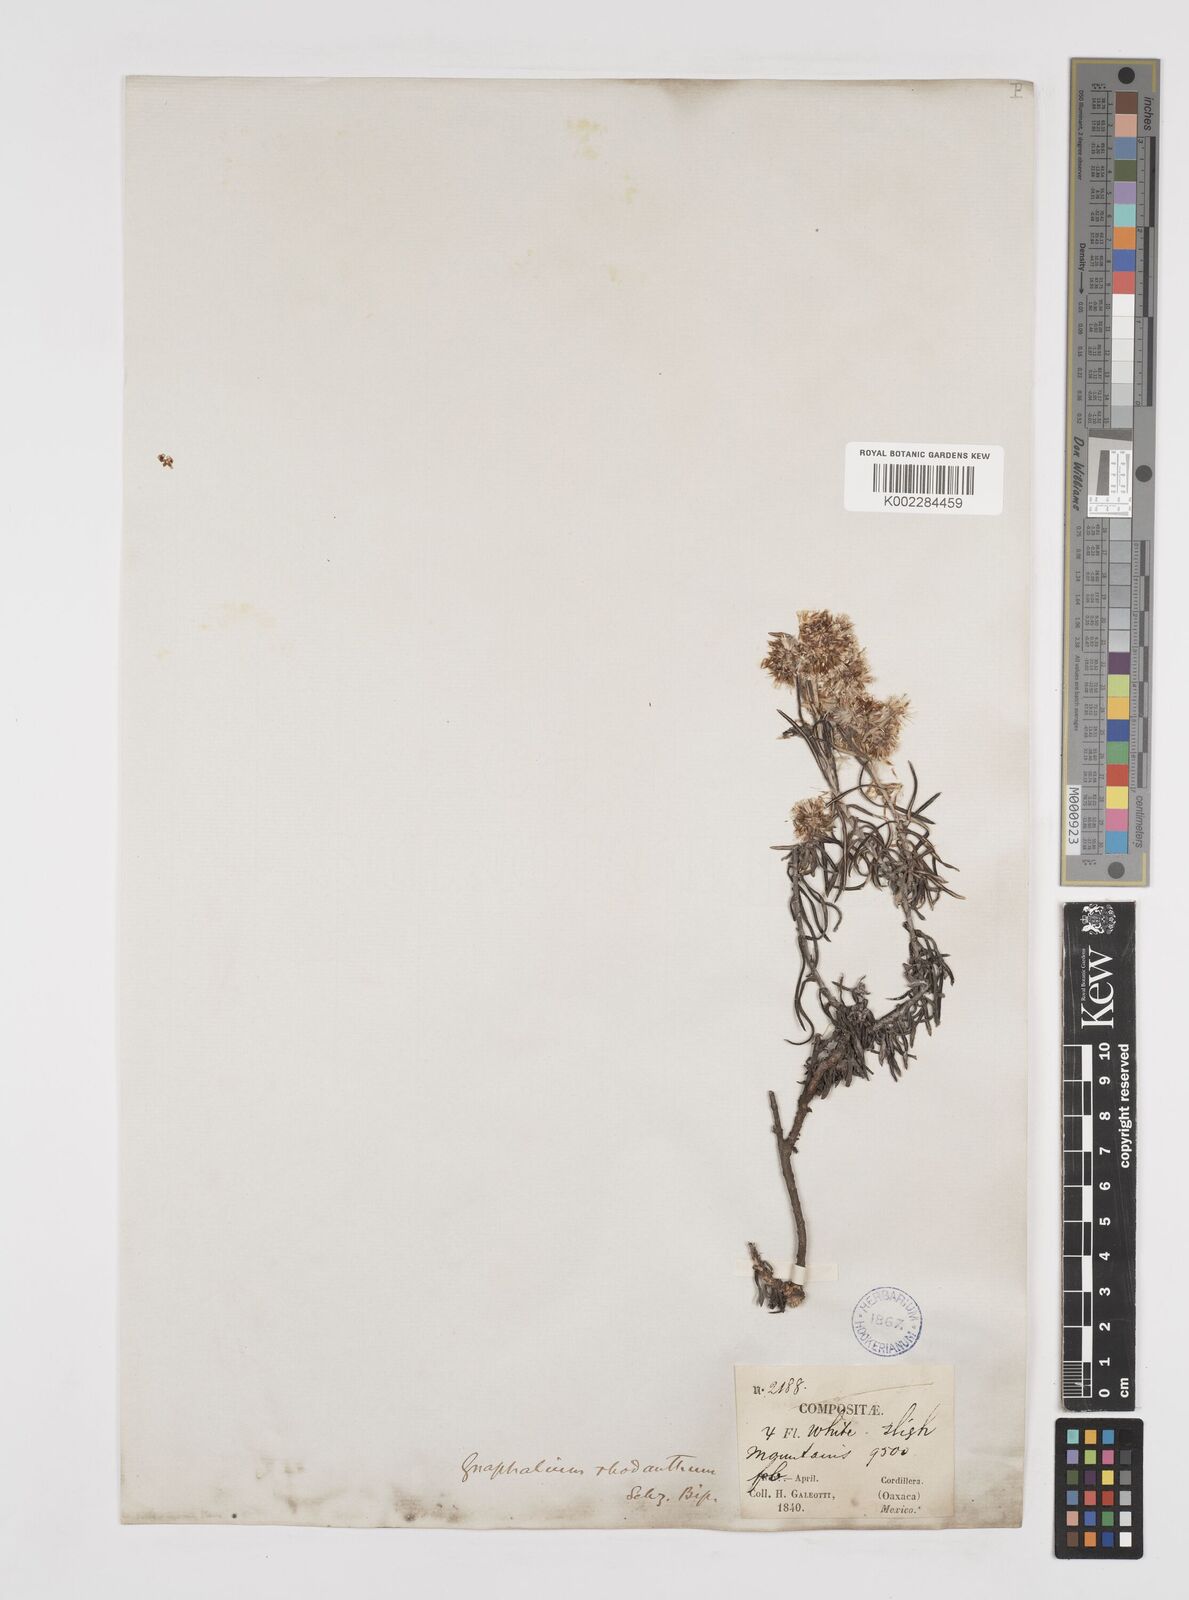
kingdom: Plantae
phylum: Tracheophyta
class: Magnoliopsida
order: Asterales
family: Asteraceae
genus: Gnaphaliothamnus
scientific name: Gnaphaliothamnus salicifolius
